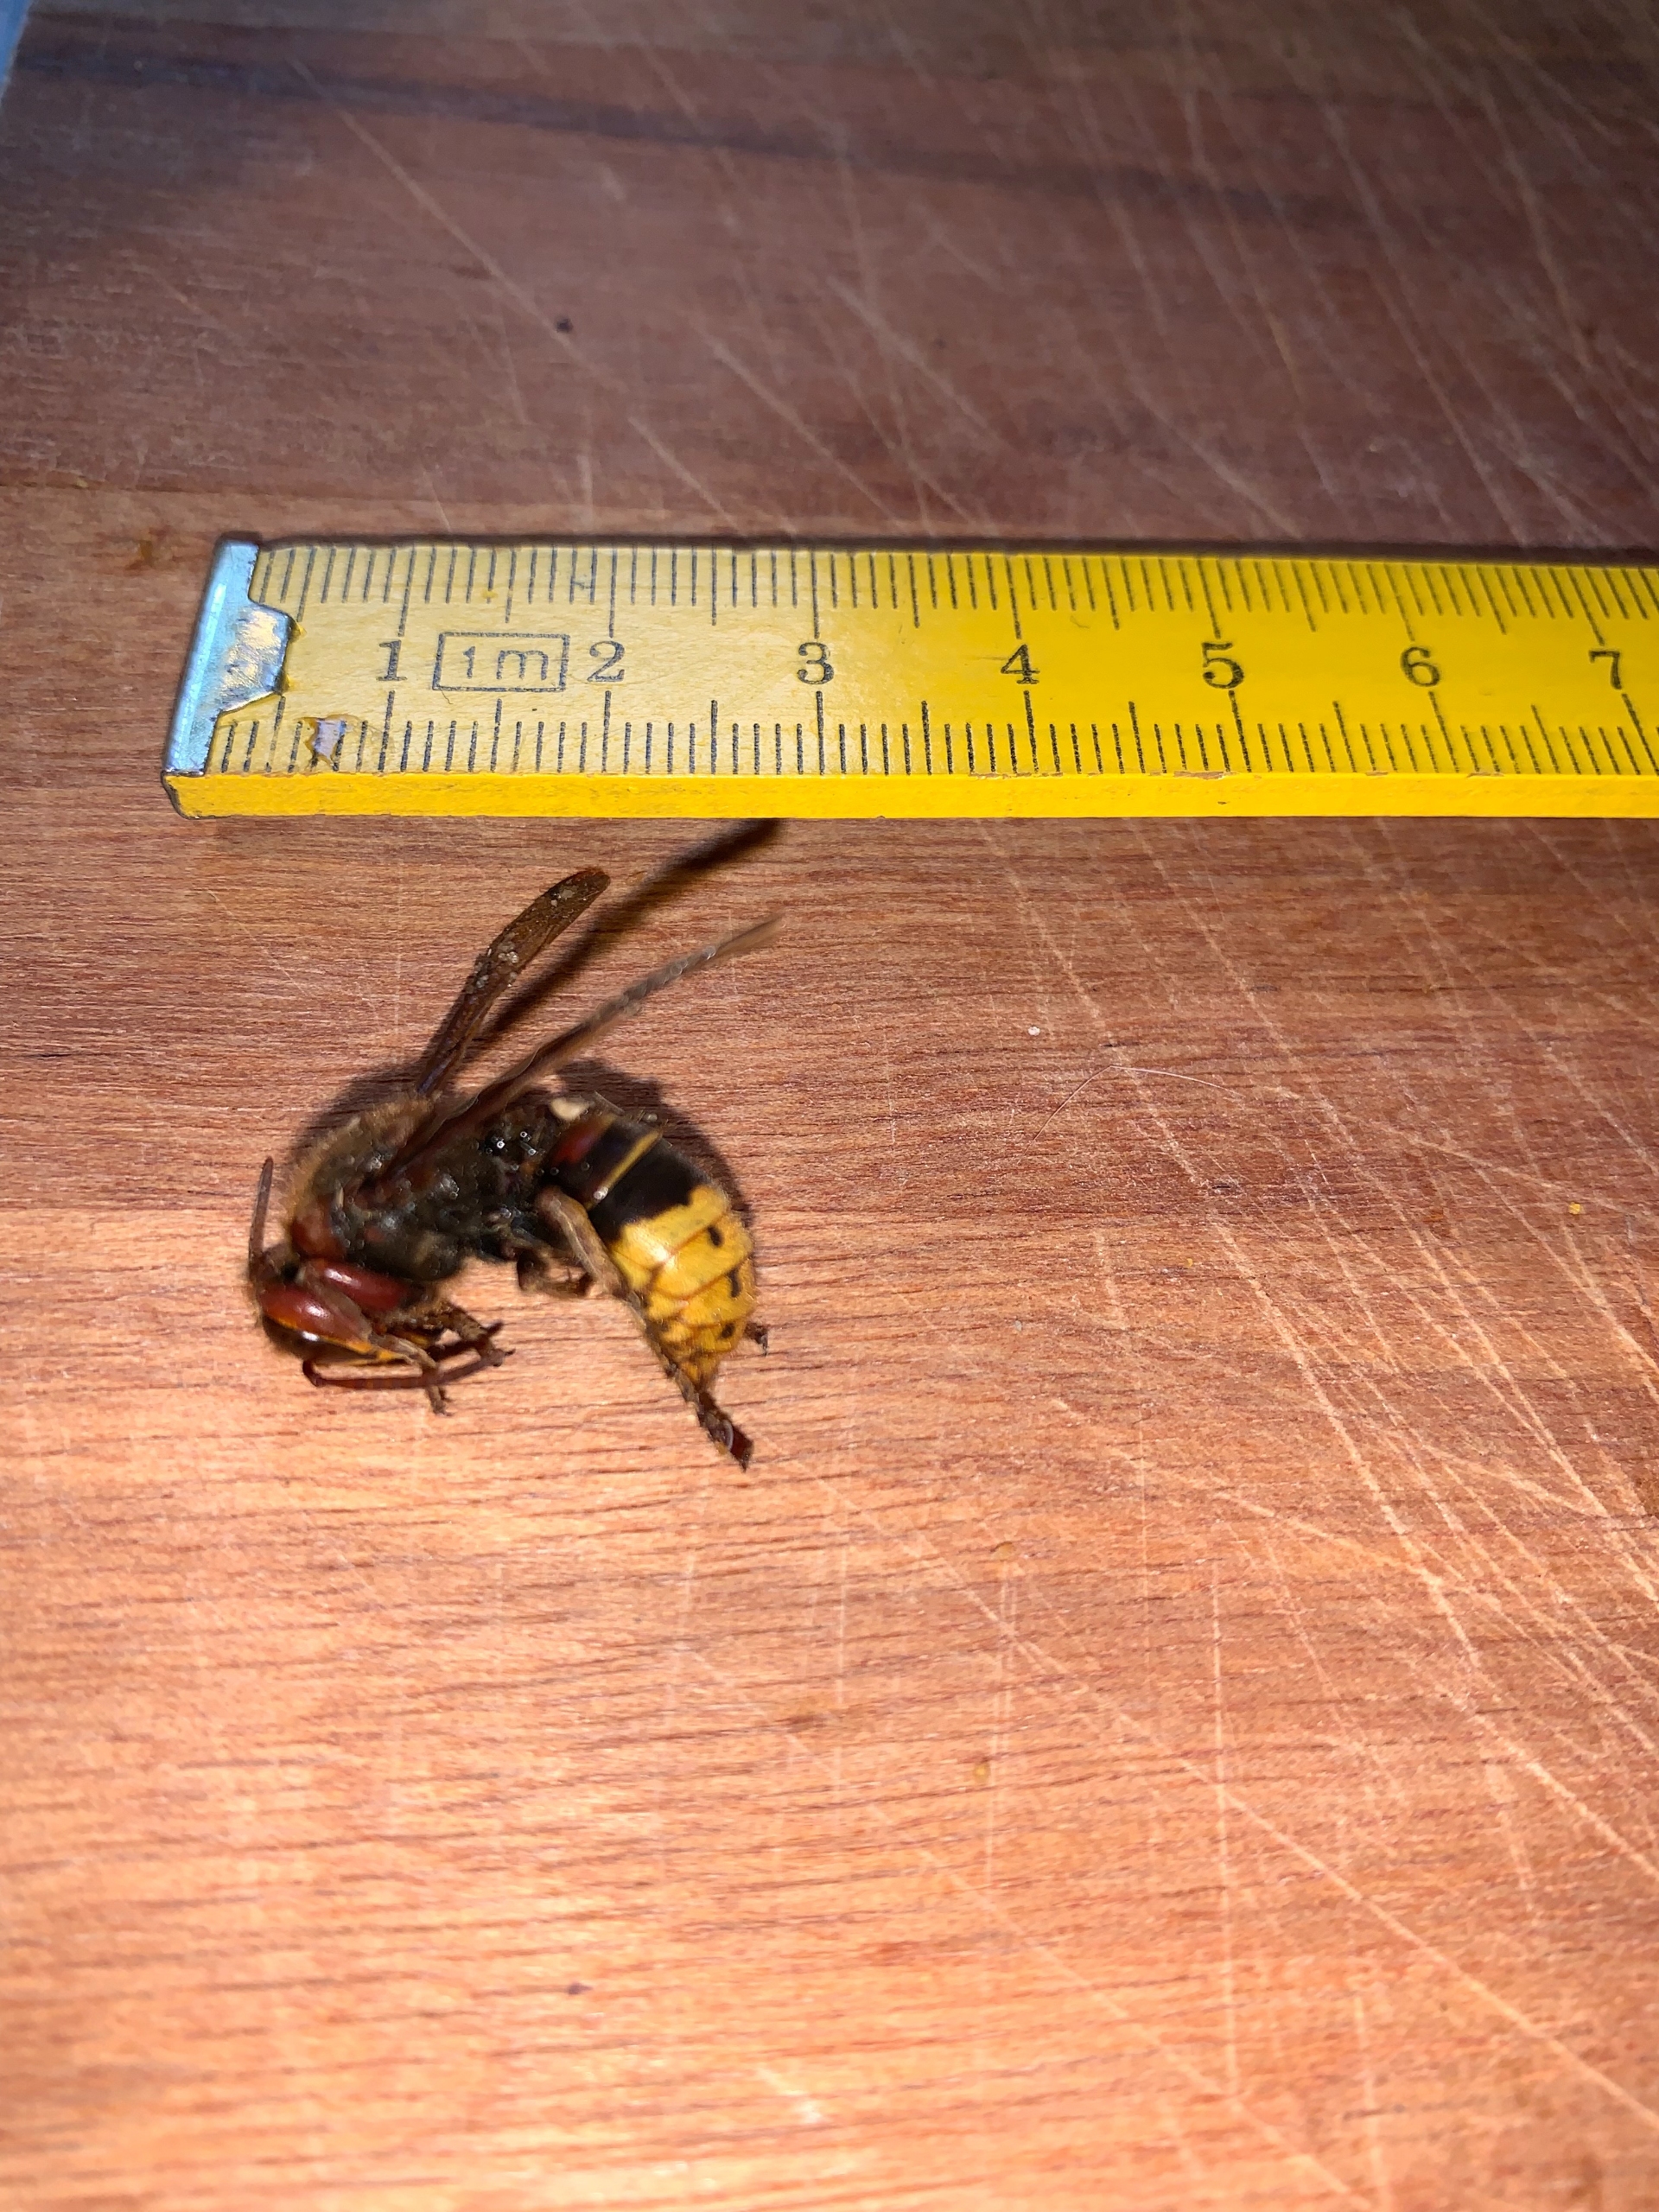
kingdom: Animalia
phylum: Arthropoda
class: Insecta
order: Hymenoptera
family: Vespidae
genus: Vespa
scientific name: Vespa crabro
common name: Stor gedehams
